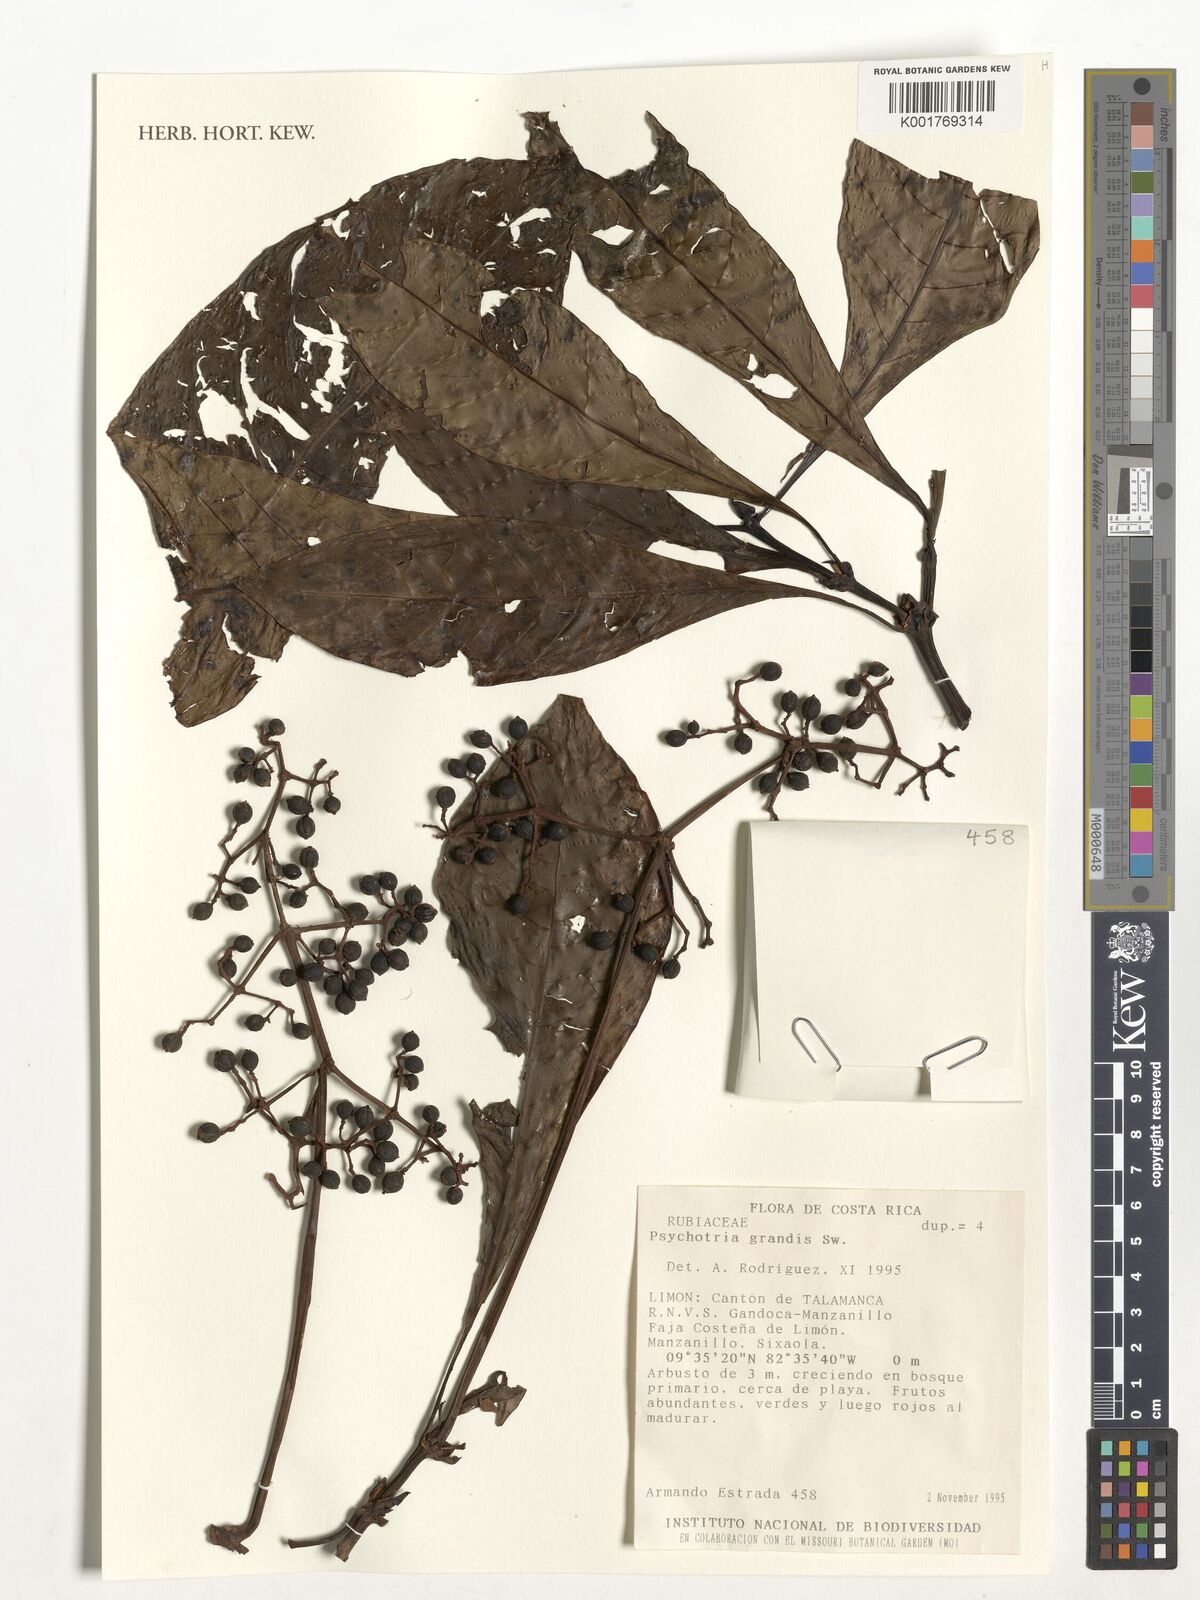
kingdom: Plantae
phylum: Tracheophyta
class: Magnoliopsida
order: Gentianales
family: Rubiaceae
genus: Psychotria
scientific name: Psychotria grandis
